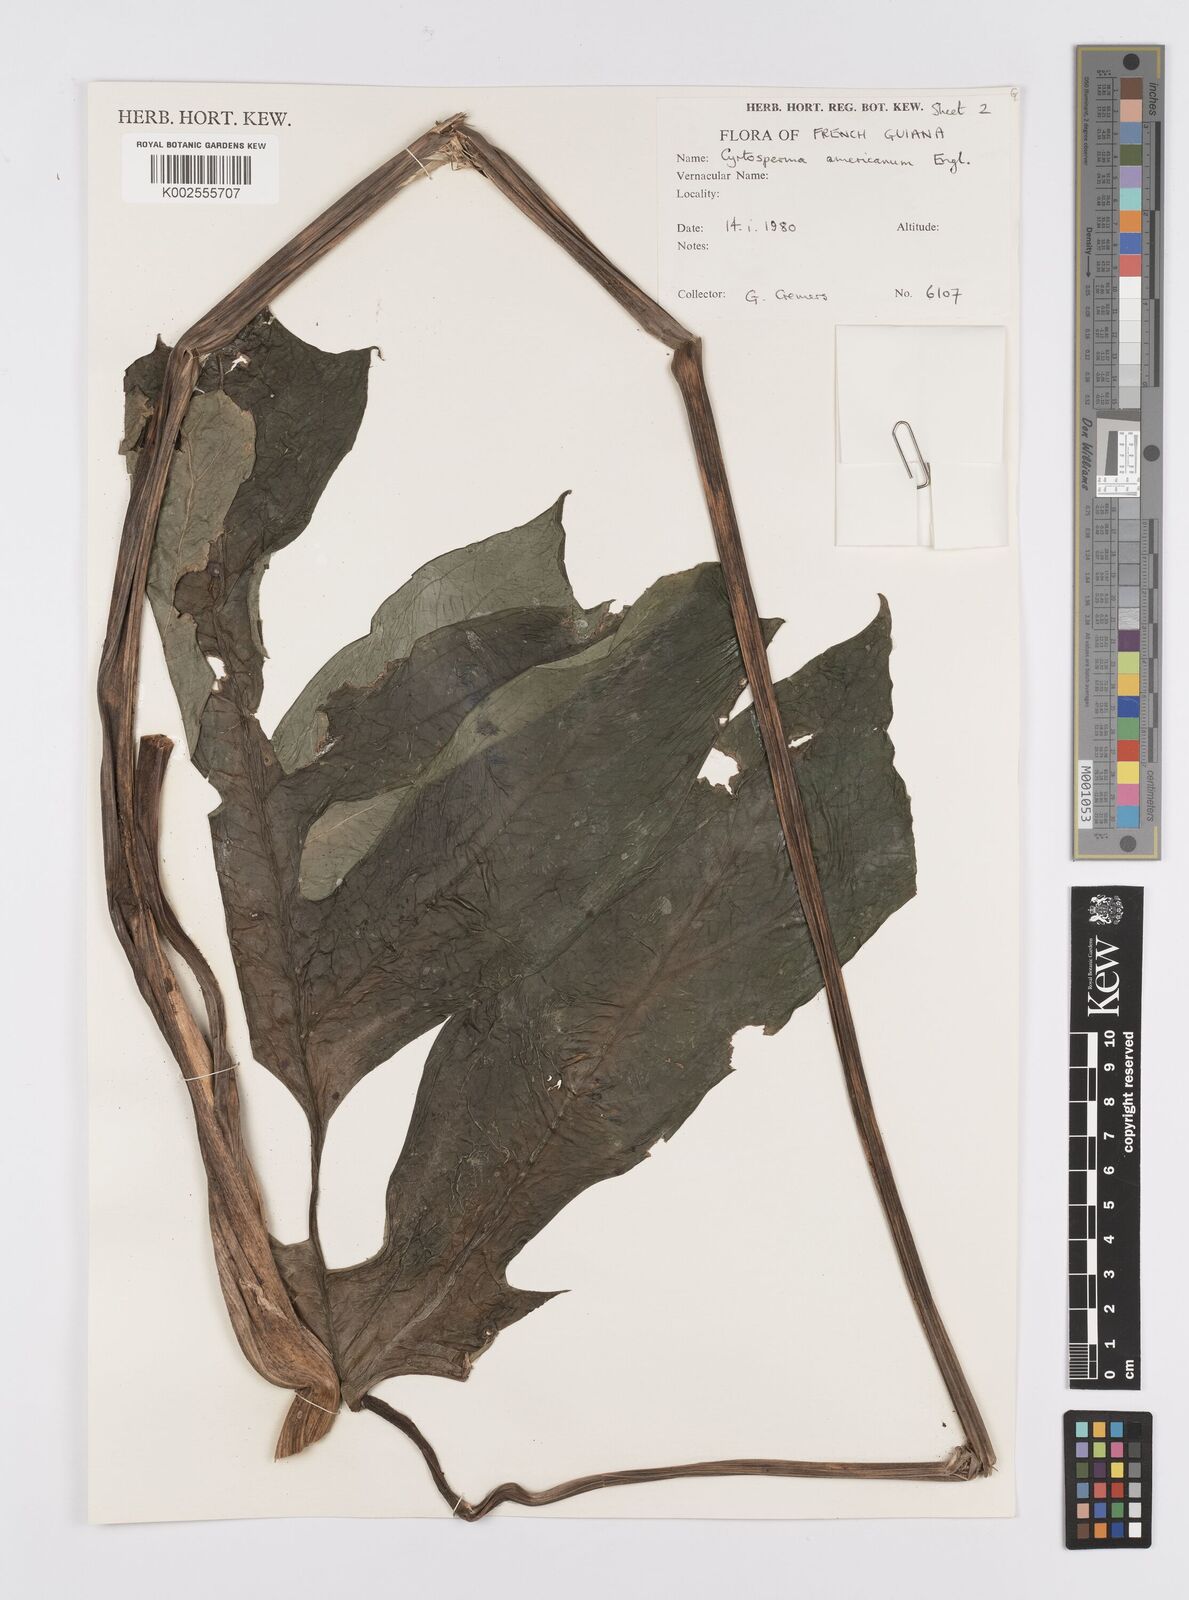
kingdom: Plantae
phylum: Tracheophyta
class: Liliopsida
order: Alismatales
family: Araceae
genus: Anaphyllopsis
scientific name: Anaphyllopsis americana
